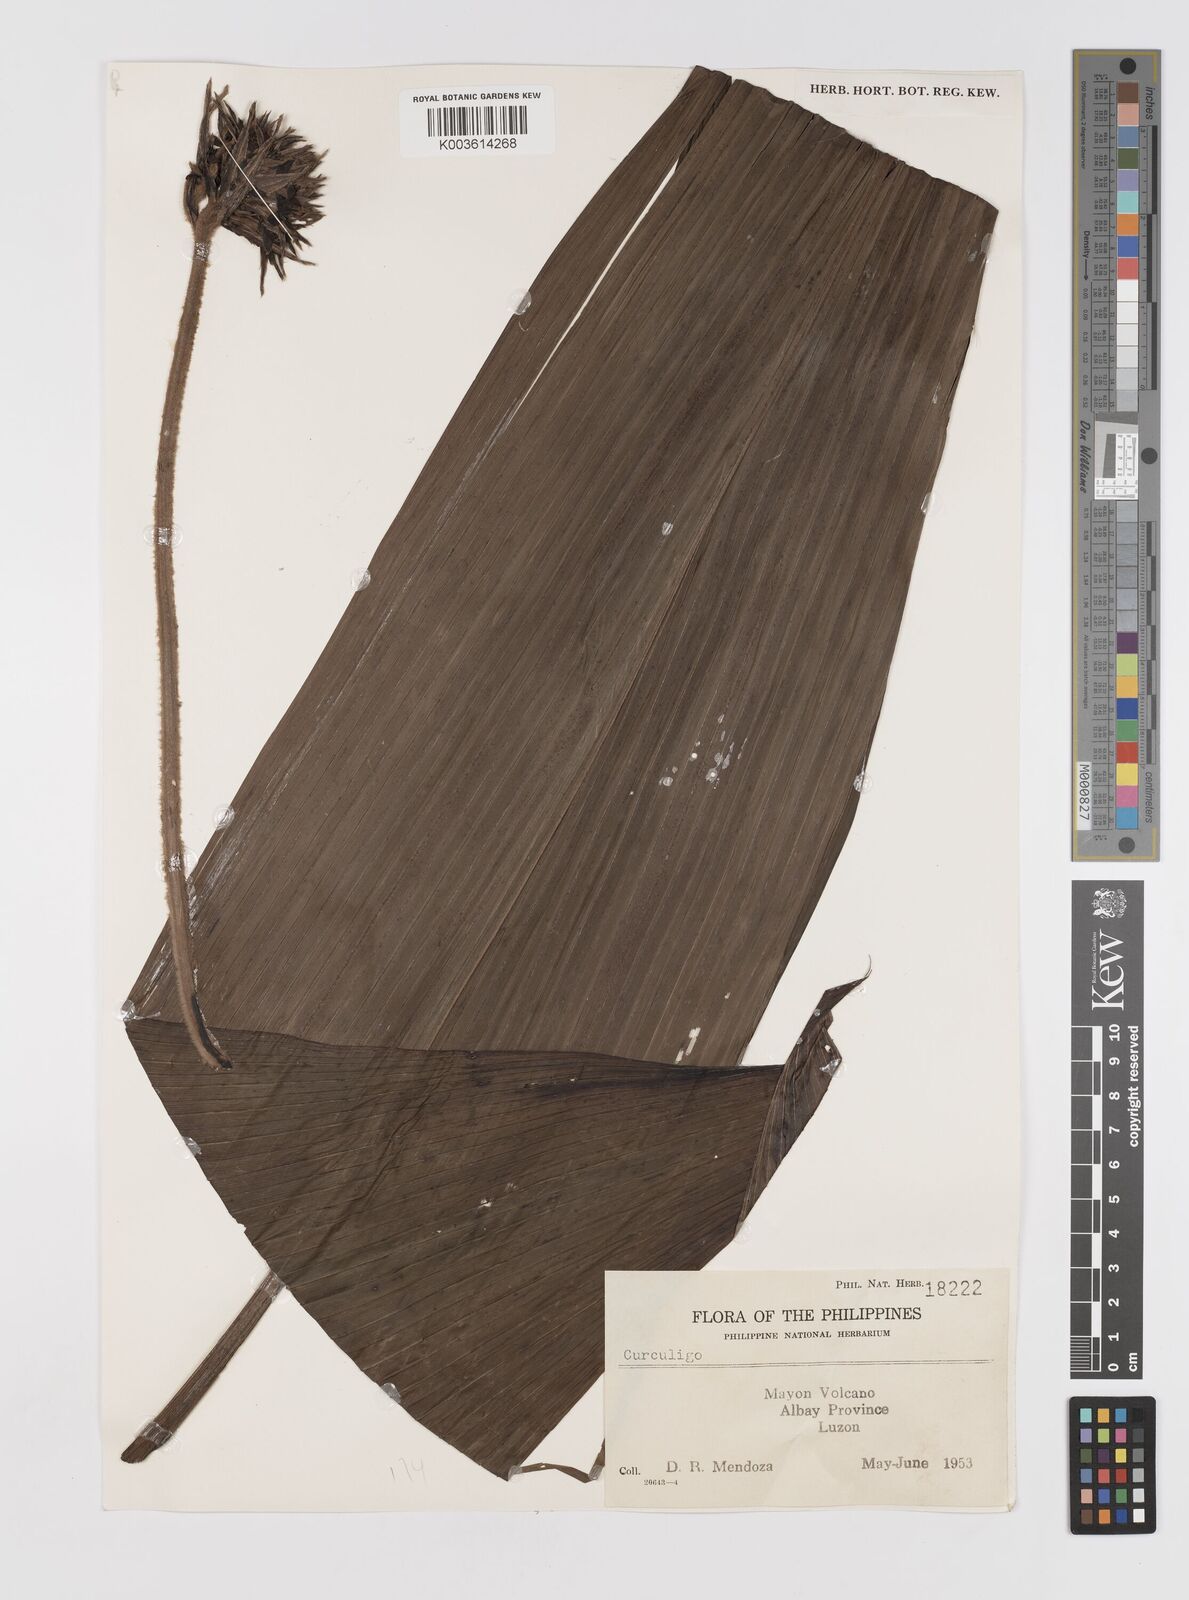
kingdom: Plantae
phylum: Tracheophyta
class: Liliopsida
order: Asparagales
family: Hypoxidaceae
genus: Curculigo
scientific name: Curculigo
